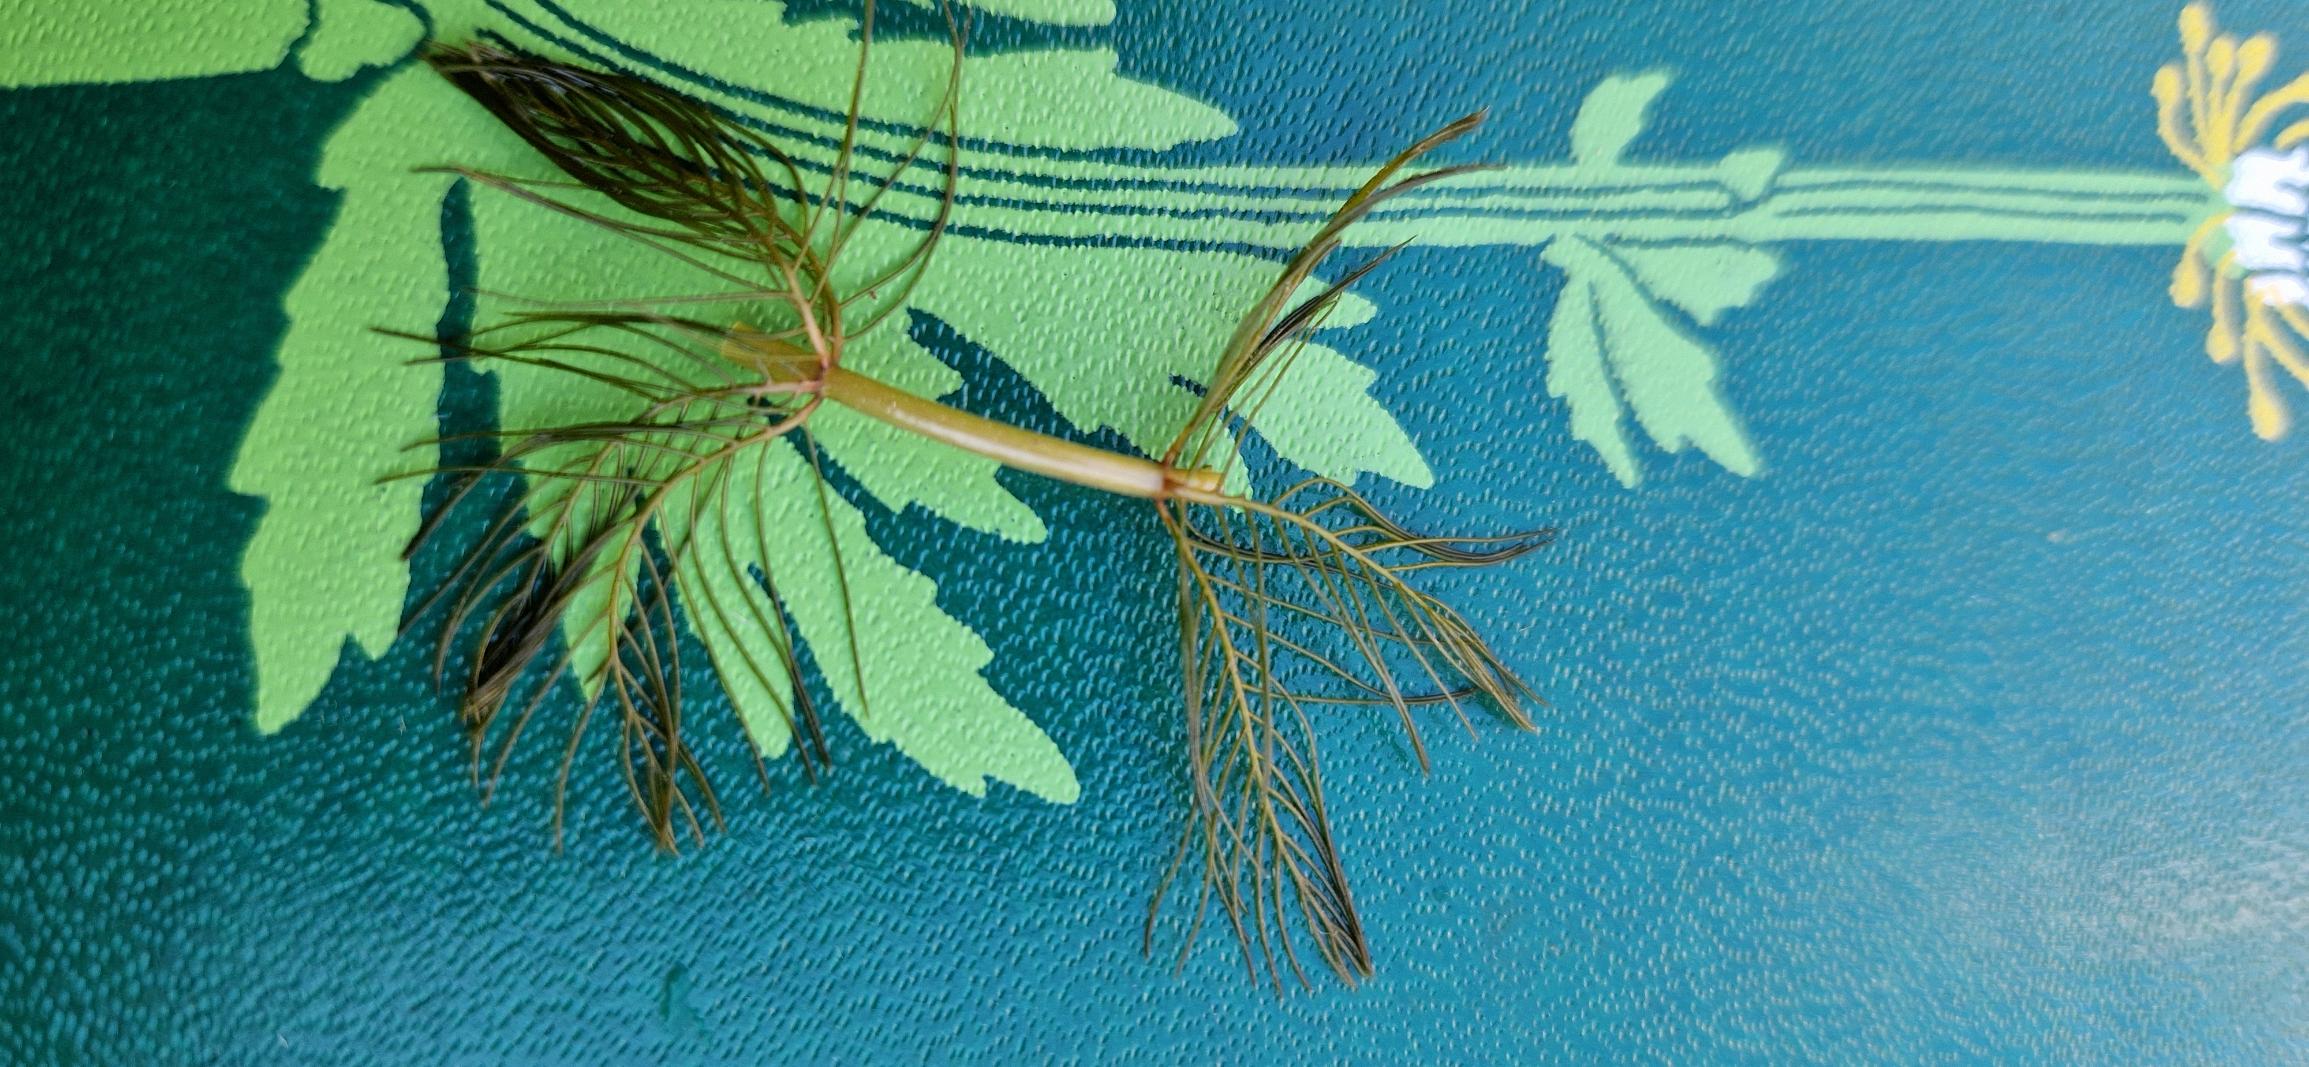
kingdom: Plantae
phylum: Tracheophyta
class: Magnoliopsida
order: Saxifragales
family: Haloragaceae
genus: Myriophyllum
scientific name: Myriophyllum spicatum
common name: Aks-tusindblad
